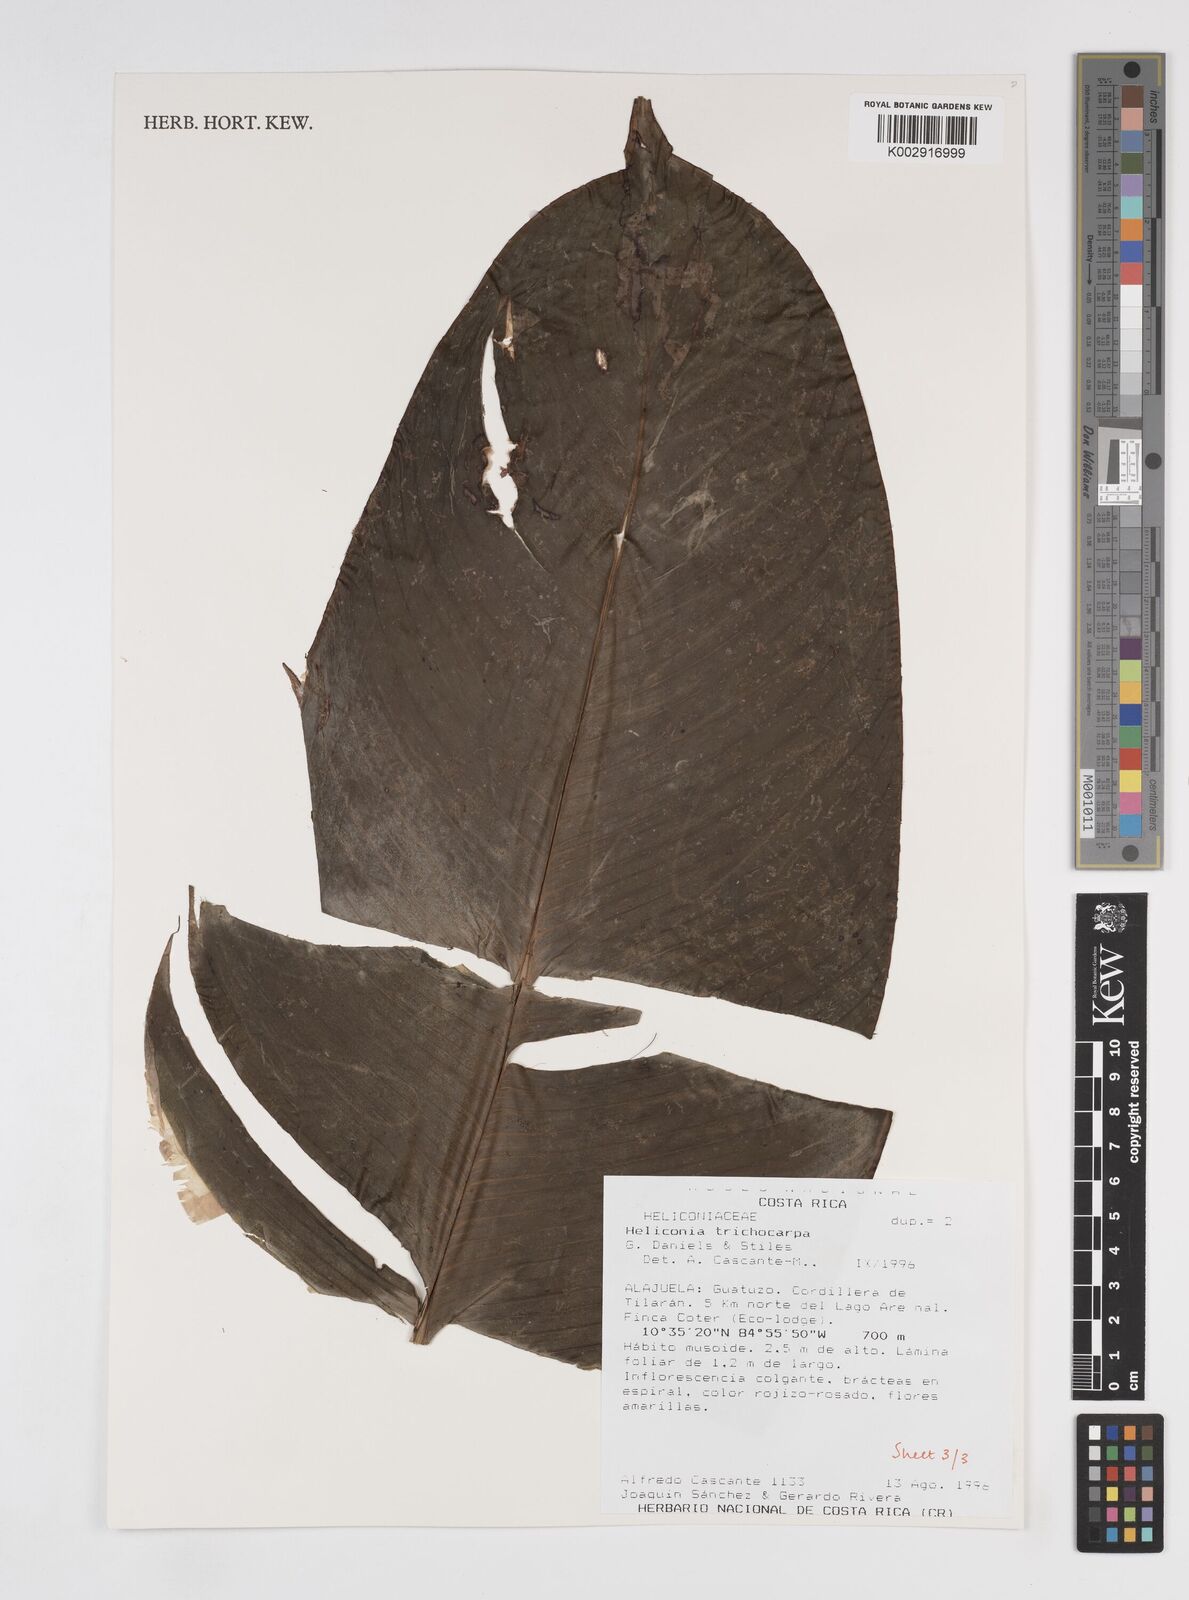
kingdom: Plantae
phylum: Tracheophyta
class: Liliopsida
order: Zingiberales
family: Heliconiaceae
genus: Heliconia
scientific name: Heliconia trichocarpa
